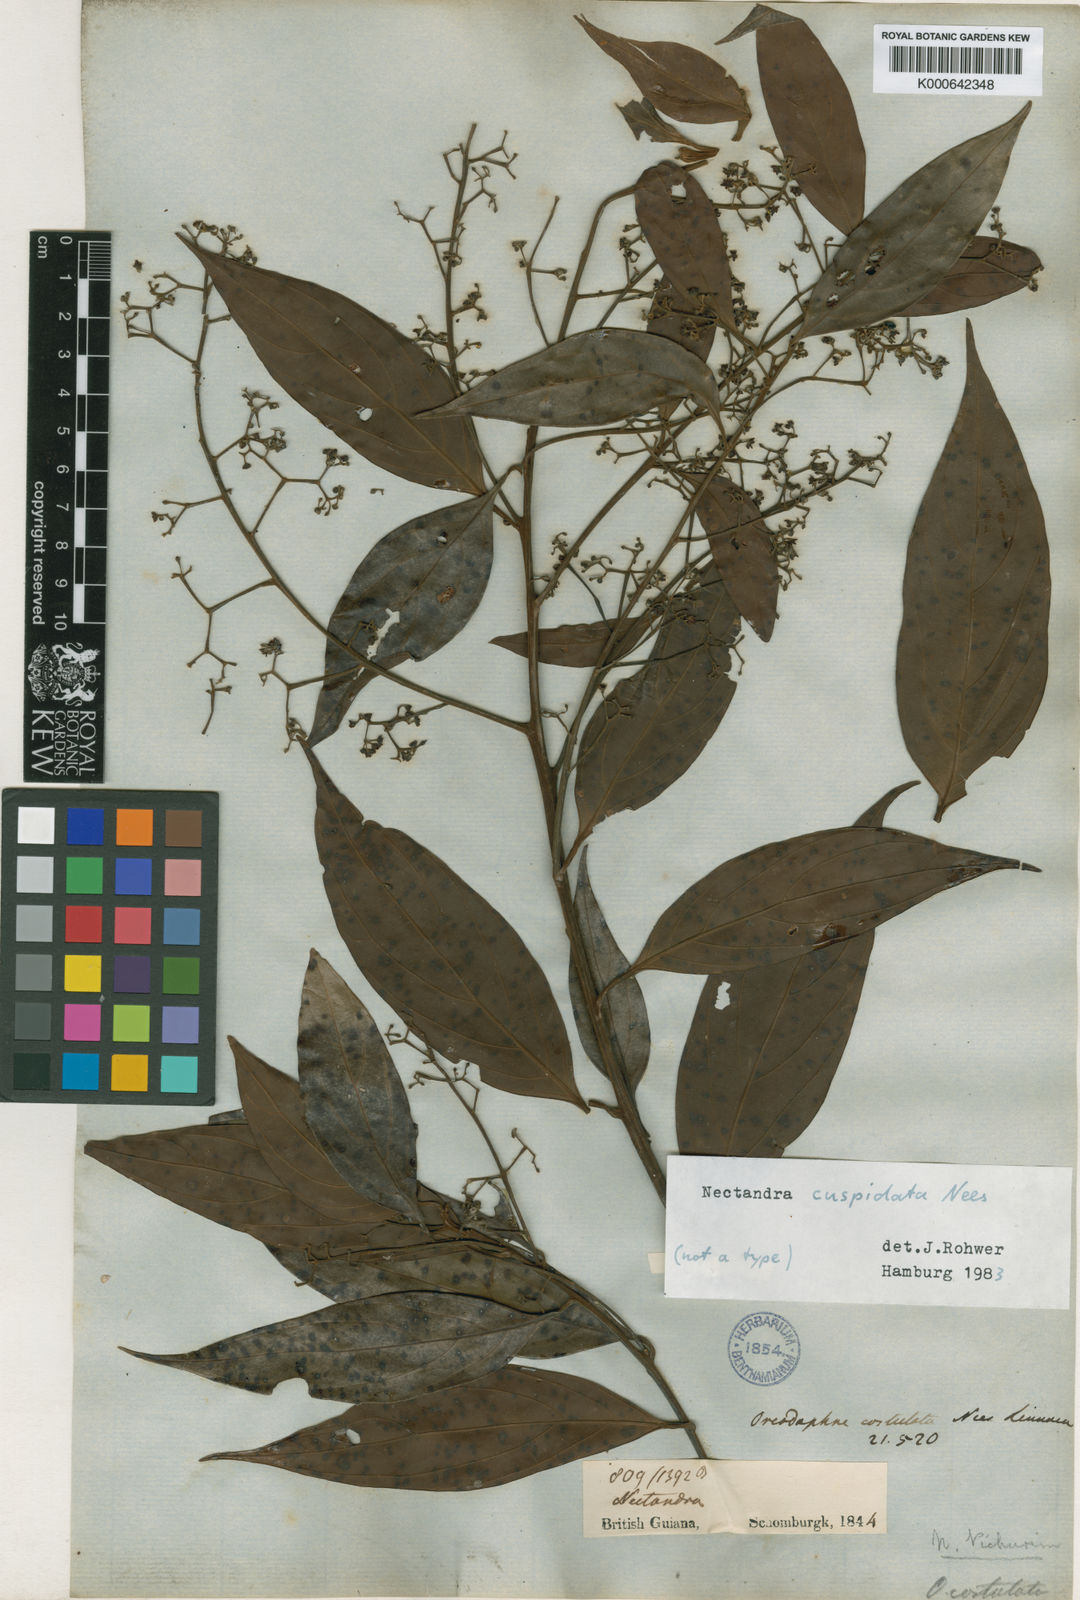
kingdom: Plantae
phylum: Tracheophyta
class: Magnoliopsida
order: Laurales
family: Lauraceae
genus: Nectandra
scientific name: Nectandra cuspidata
